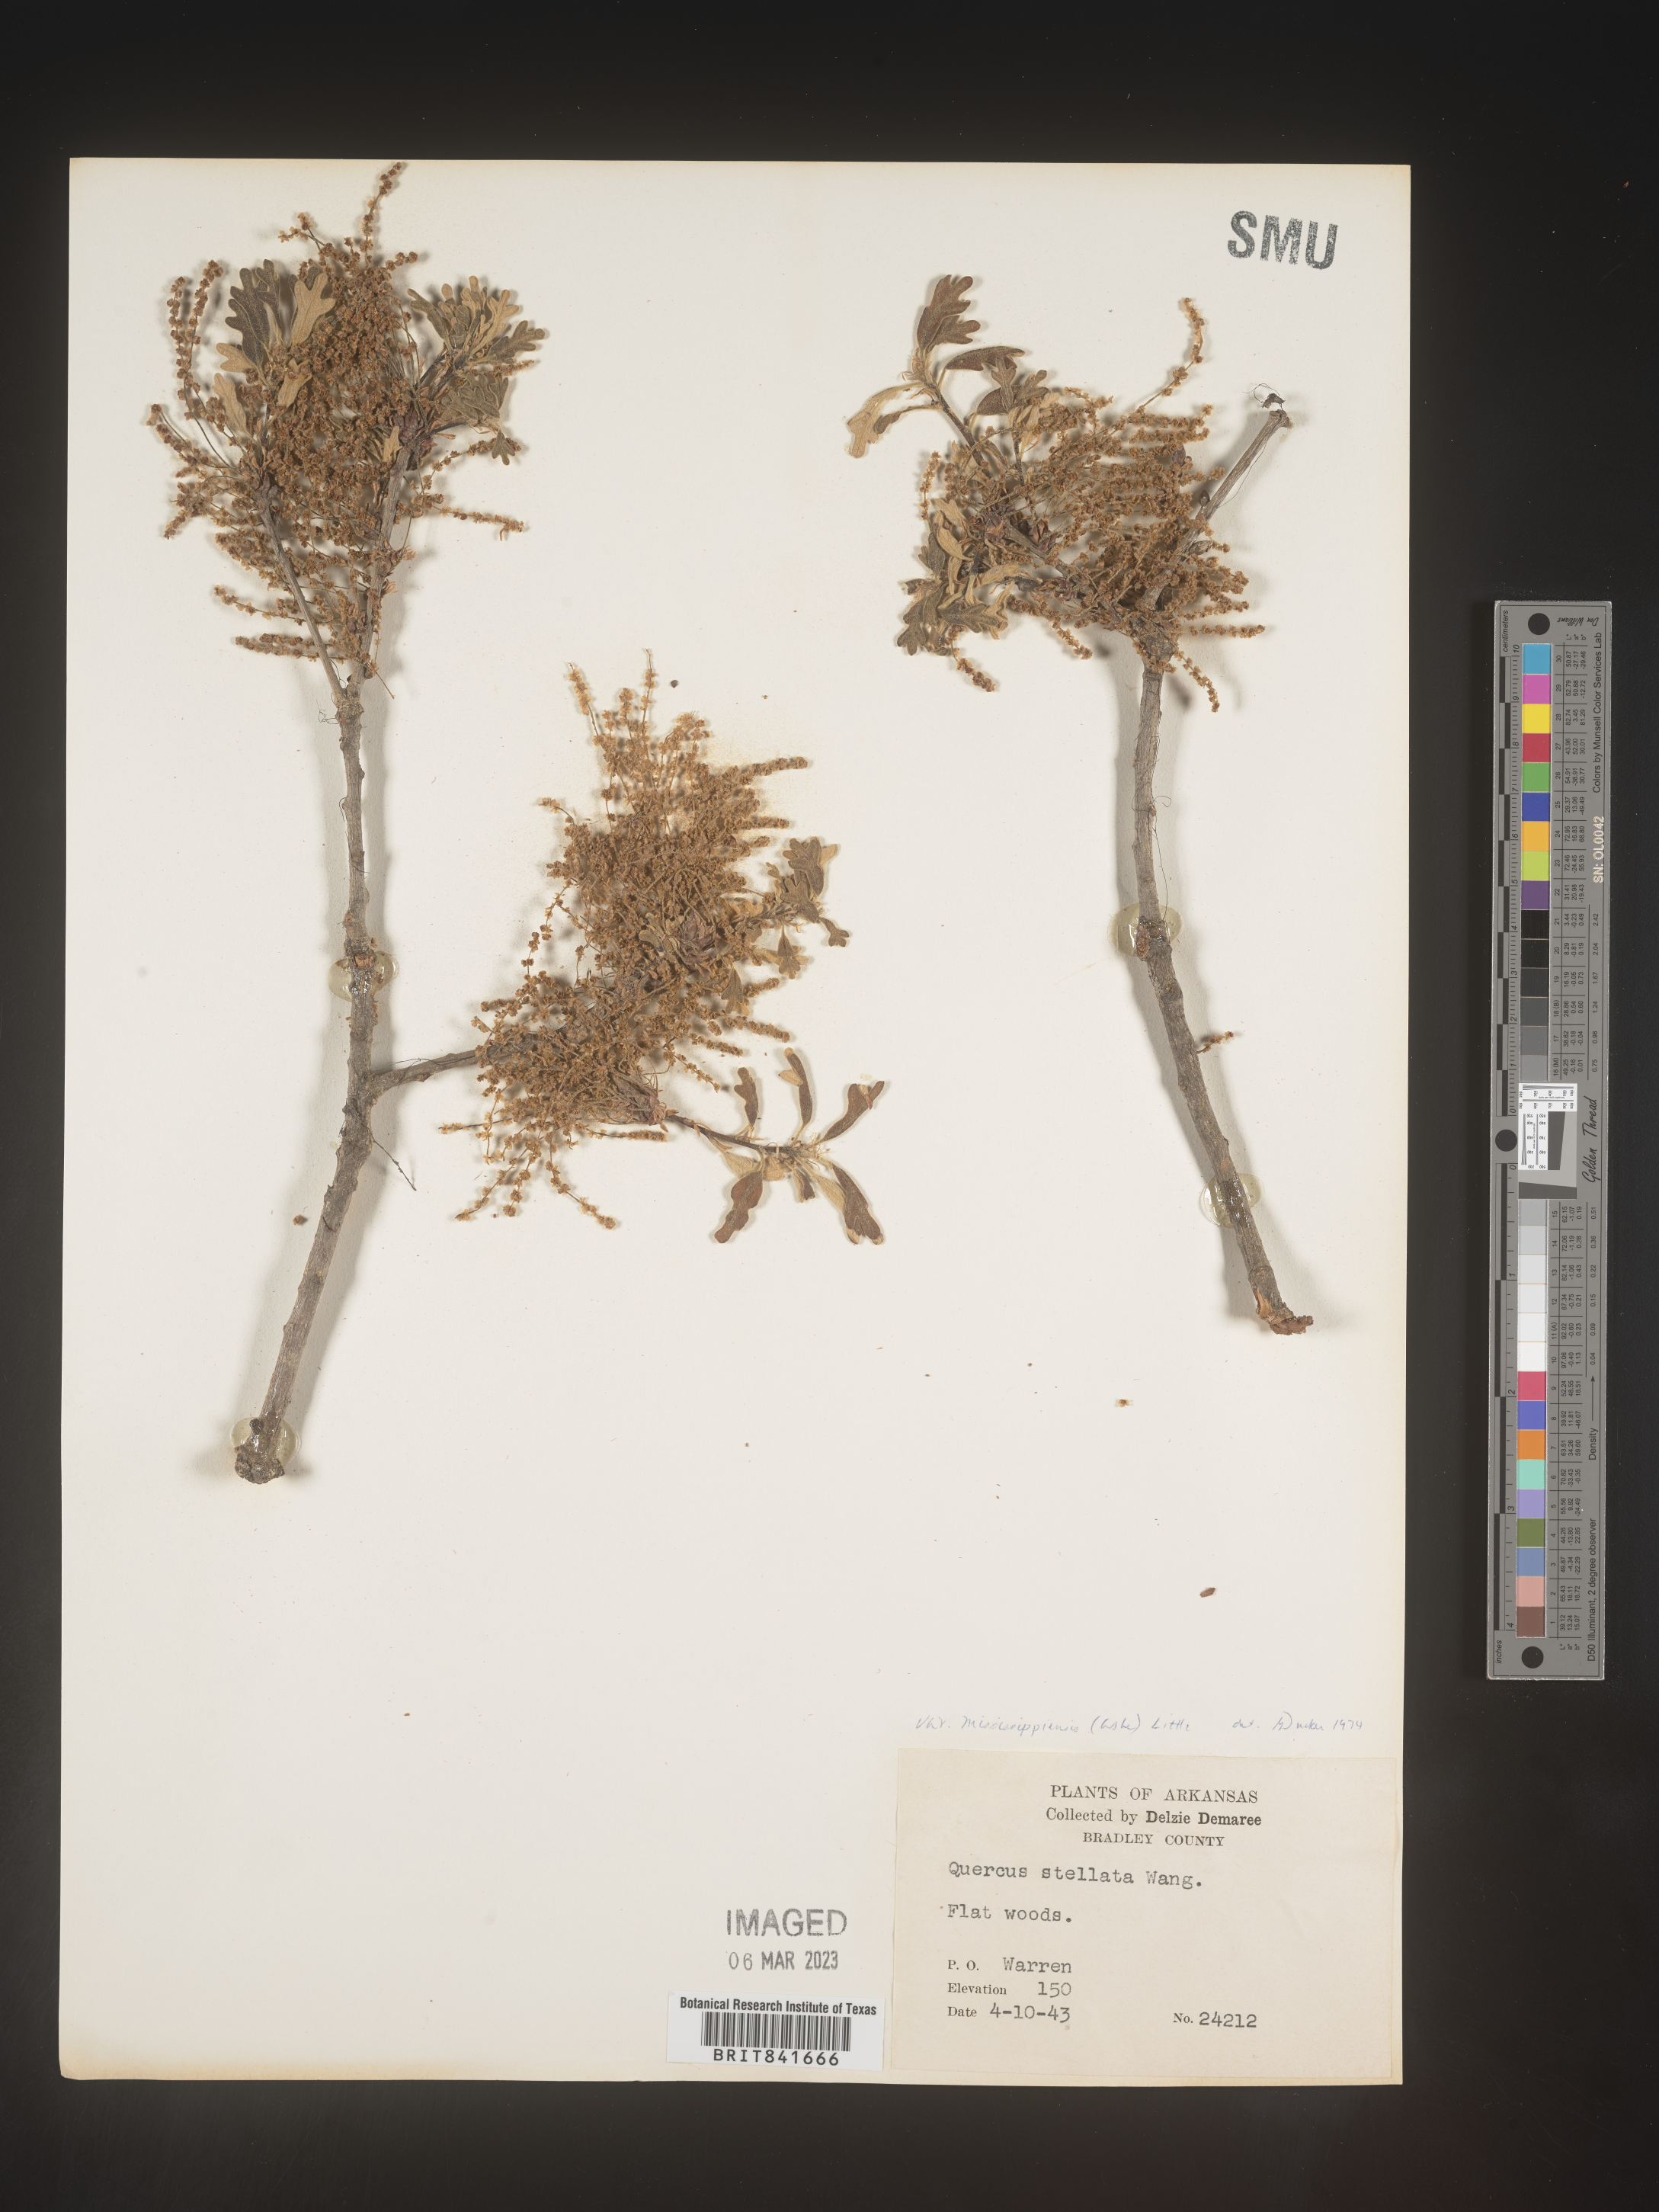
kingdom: Plantae
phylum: Tracheophyta
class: Magnoliopsida
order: Fagales
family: Fagaceae
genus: Quercus
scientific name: Quercus stellata
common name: Post oak
